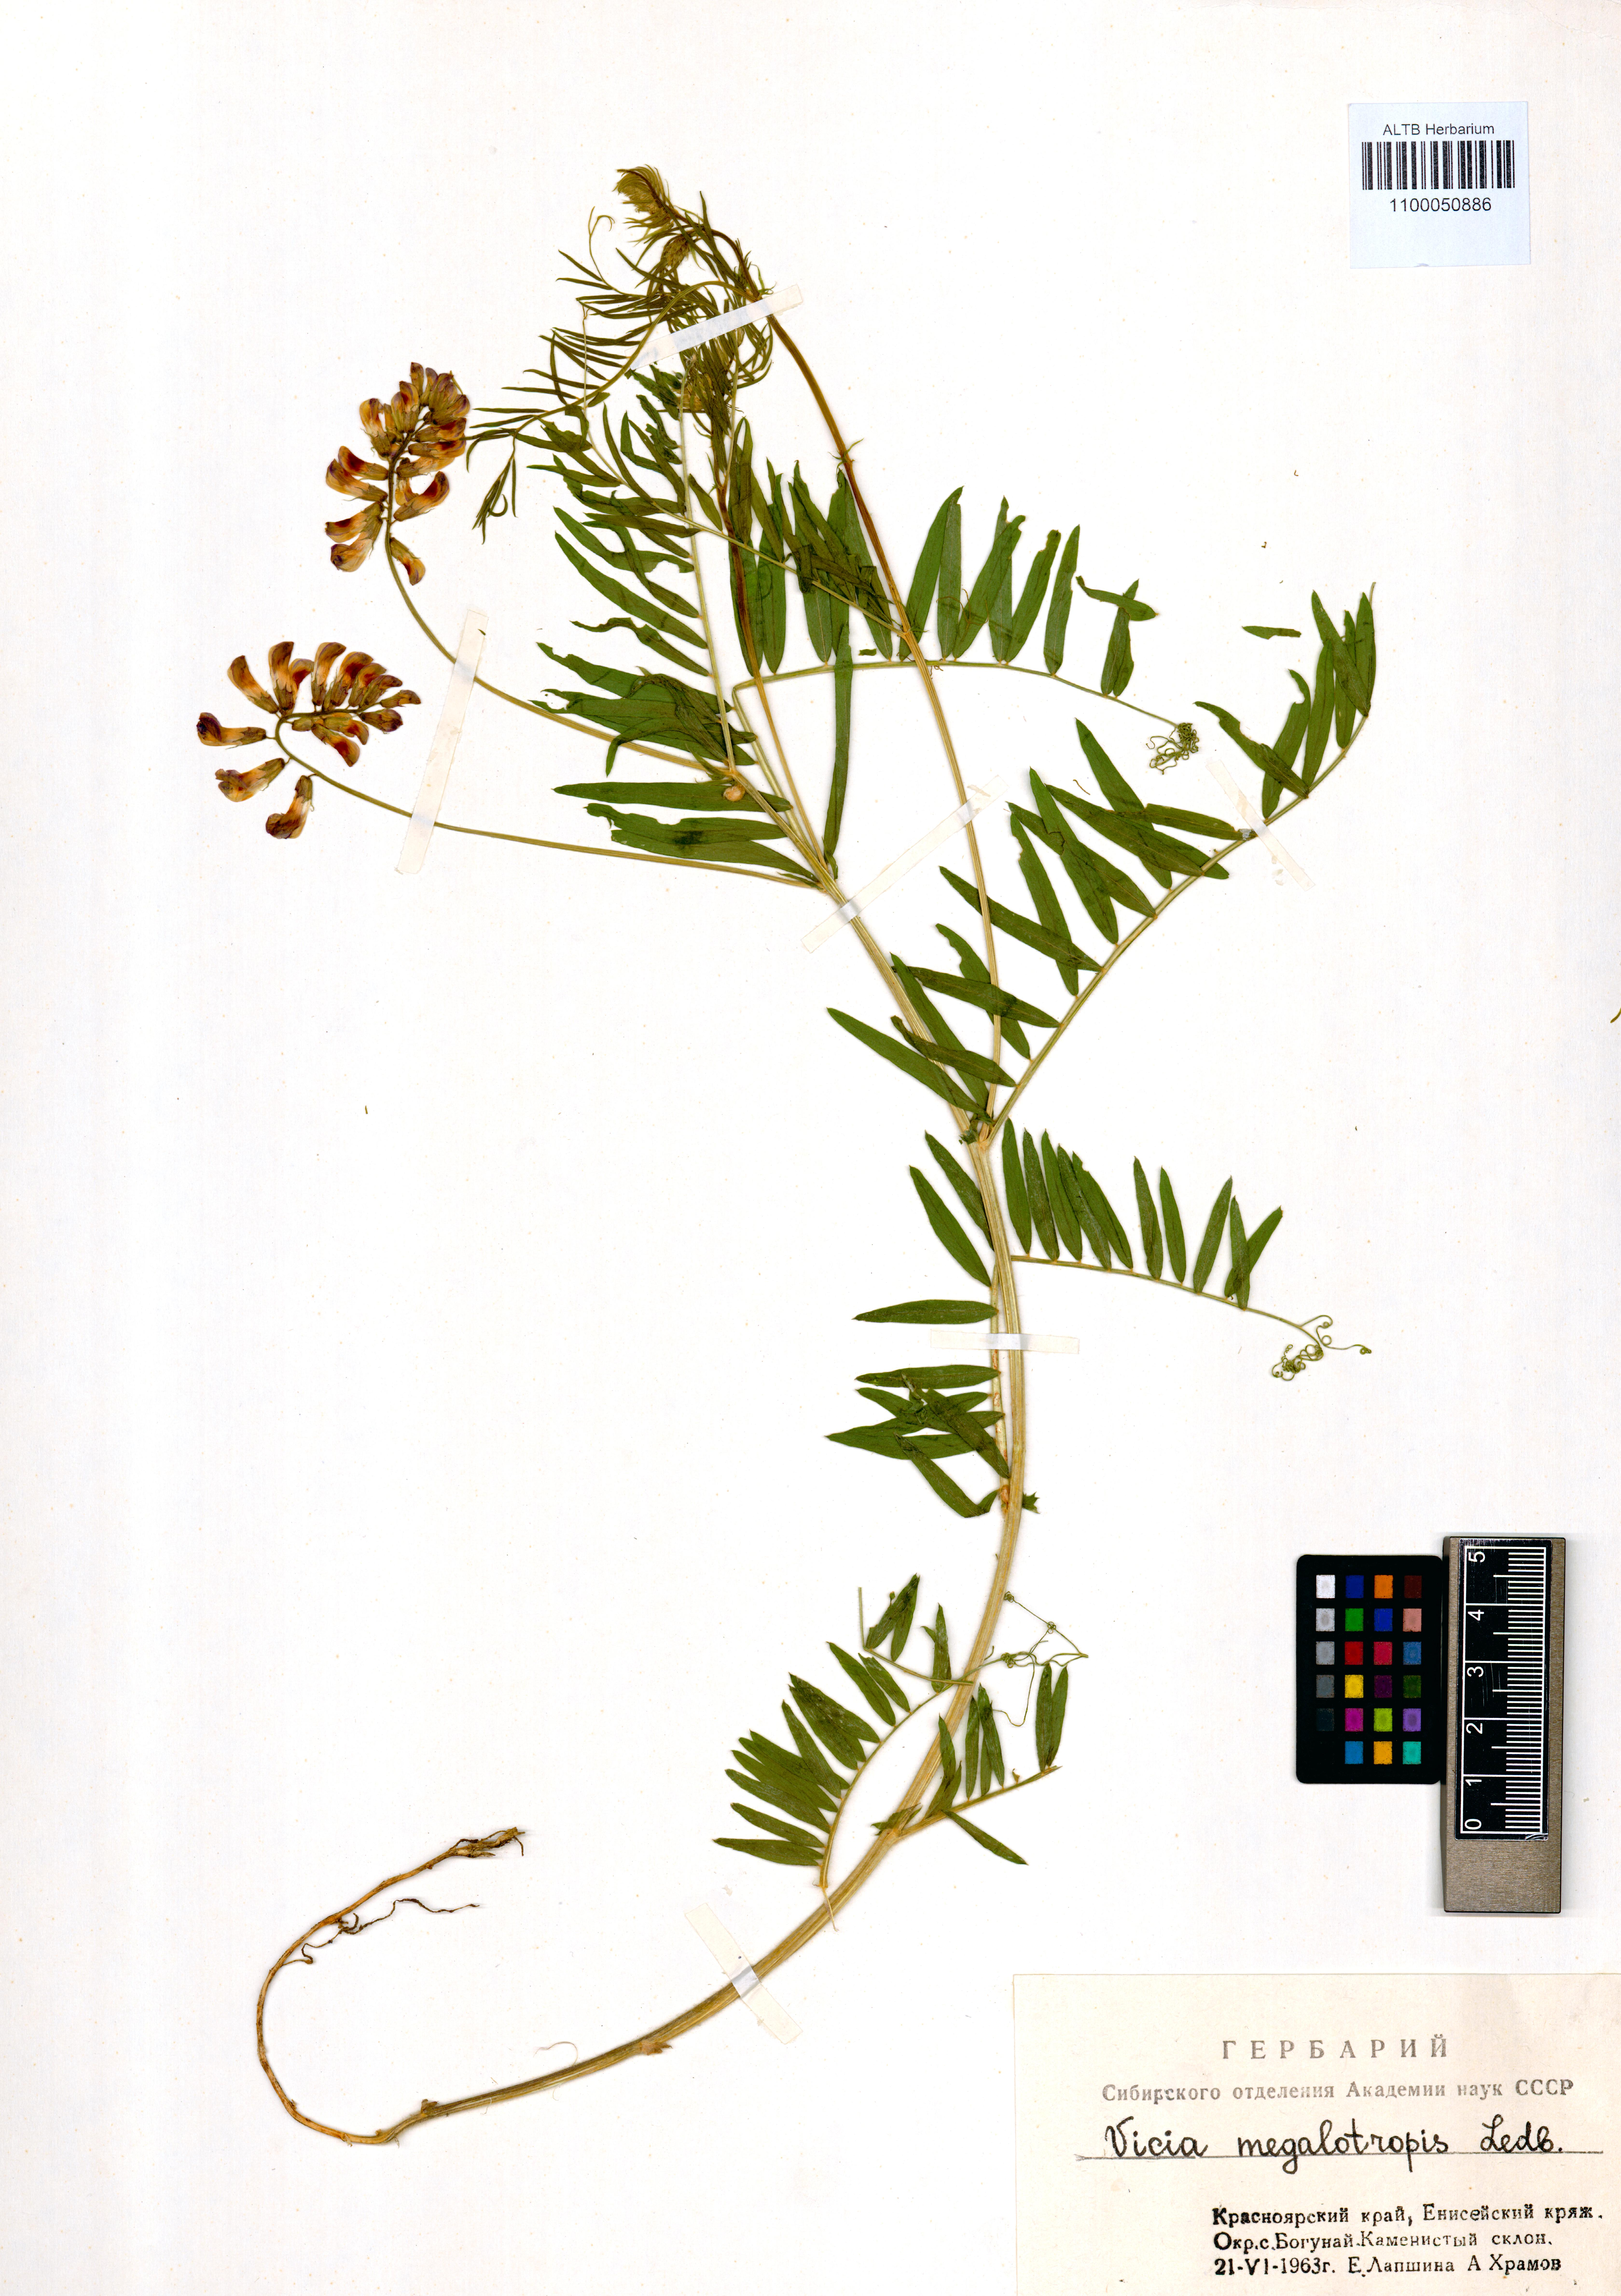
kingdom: Plantae
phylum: Tracheophyta
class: Magnoliopsida
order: Fabales
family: Fabaceae
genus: Vicia
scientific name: Vicia megalotropis
